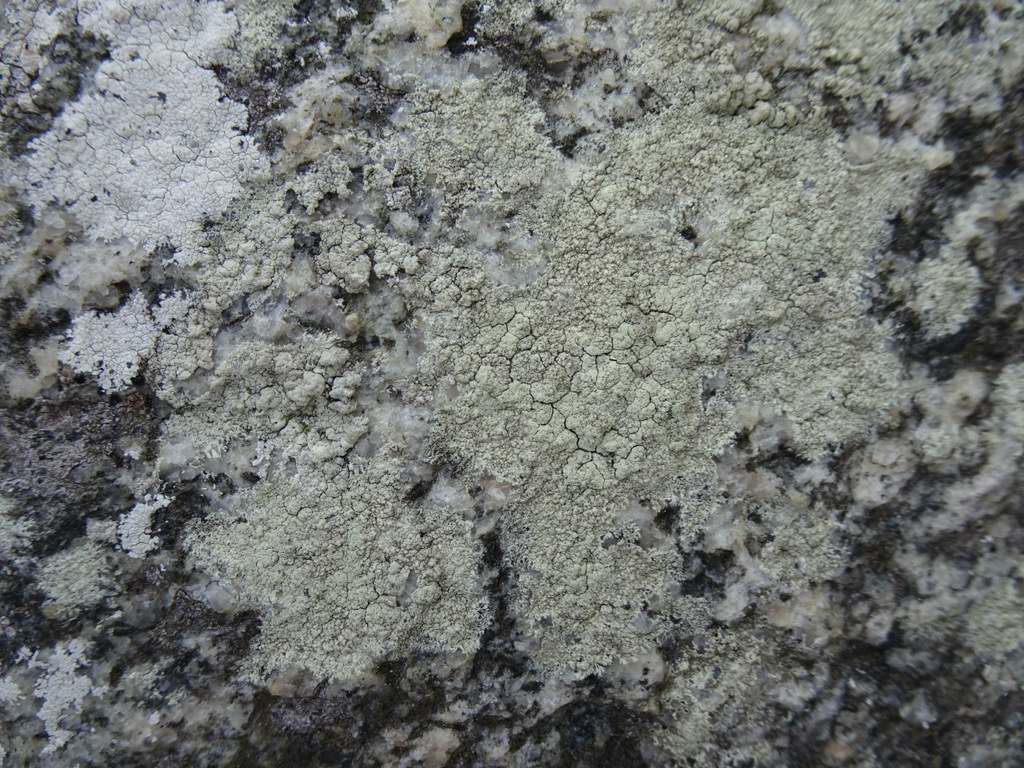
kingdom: Fungi
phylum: Ascomycota
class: Lecanoromycetes
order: Lecanorales
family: Lecanoraceae
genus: Lecanora
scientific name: Lecanora orosthea
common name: grønskurvet kantskivelav
